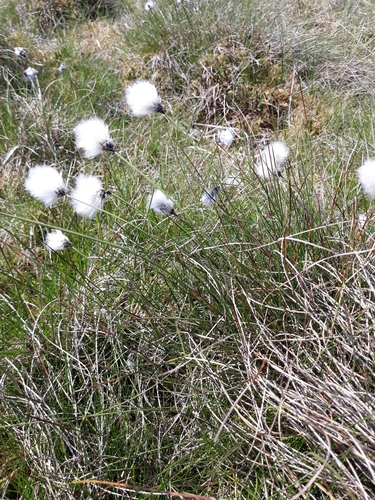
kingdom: Plantae
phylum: Tracheophyta
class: Liliopsida
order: Poales
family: Cyperaceae
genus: Eriophorum
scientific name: Eriophorum vaginatum
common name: Hare's-tail cottongrass
